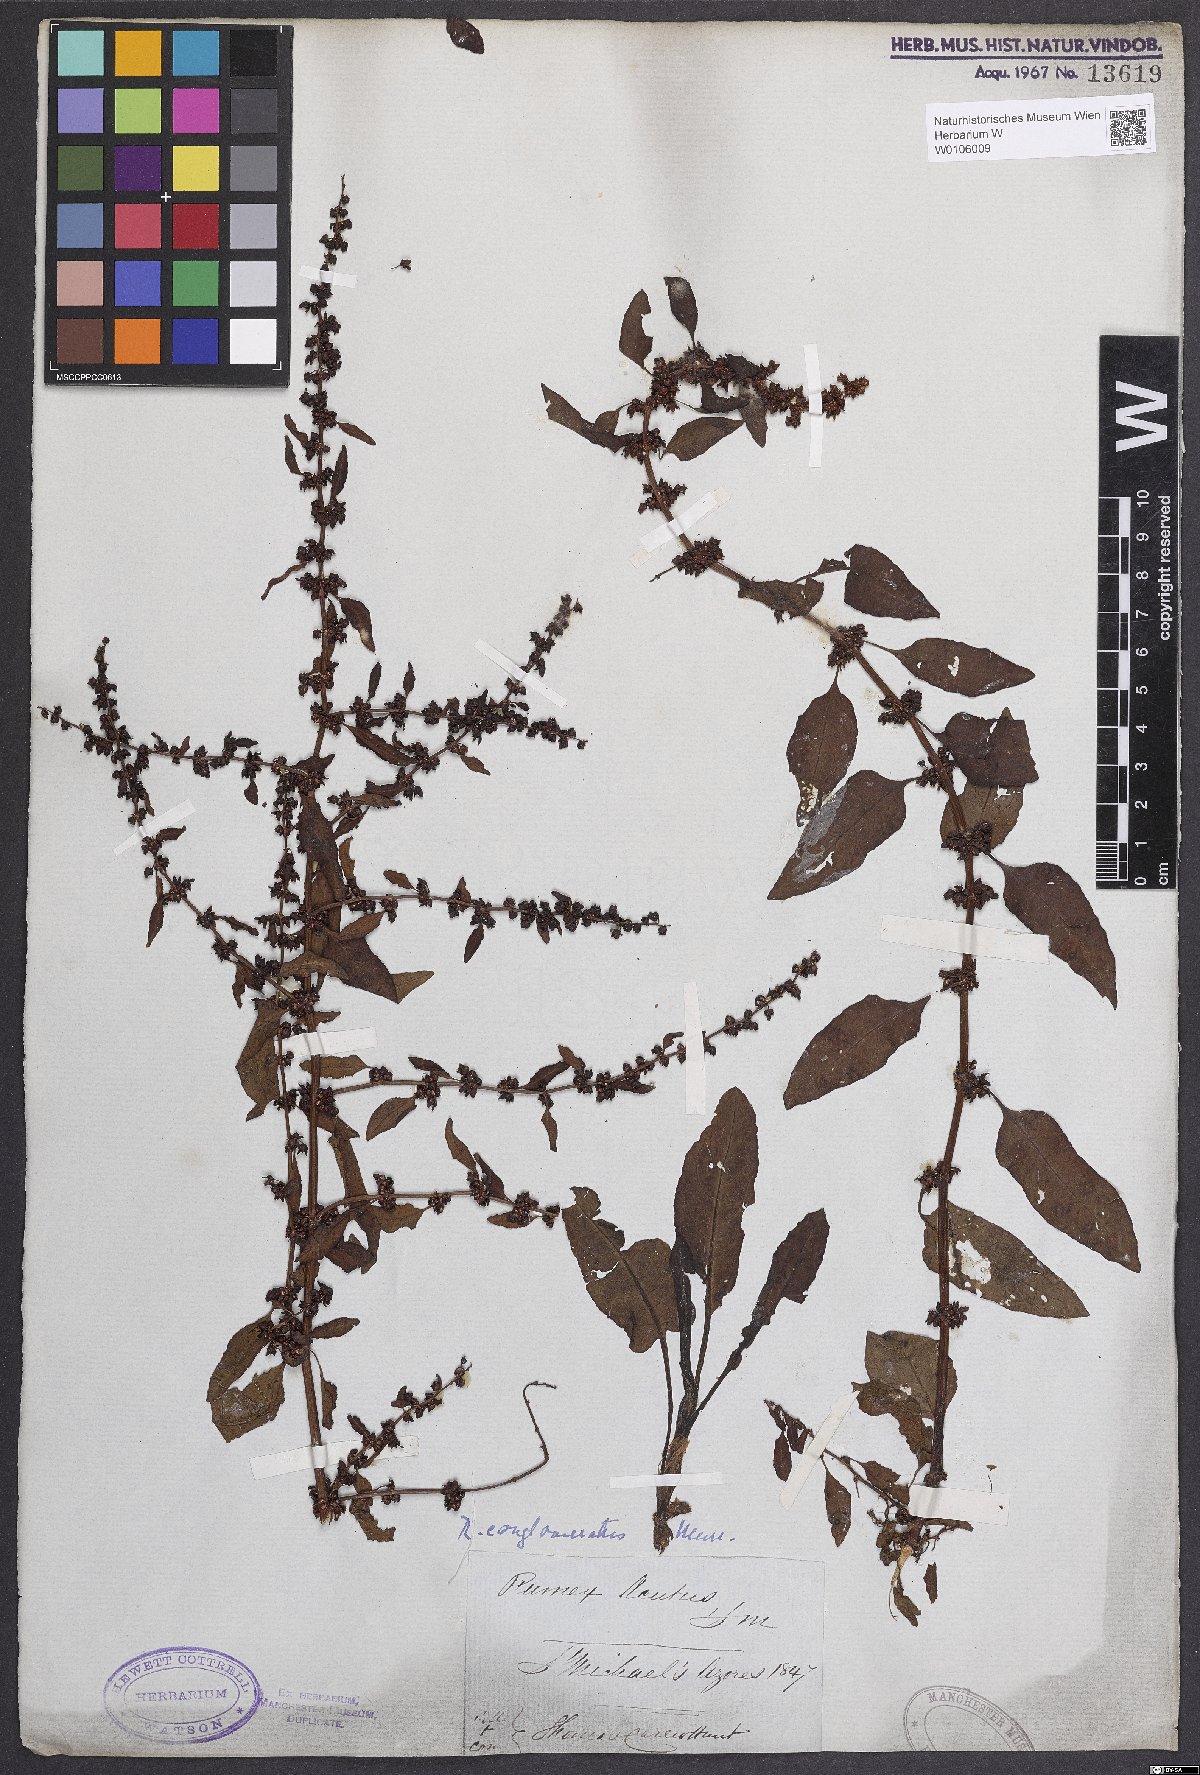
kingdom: Plantae
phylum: Tracheophyta
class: Magnoliopsida
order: Caryophyllales
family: Polygonaceae
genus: Rumex
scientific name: Rumex conglomeratus
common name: Clustered dock
